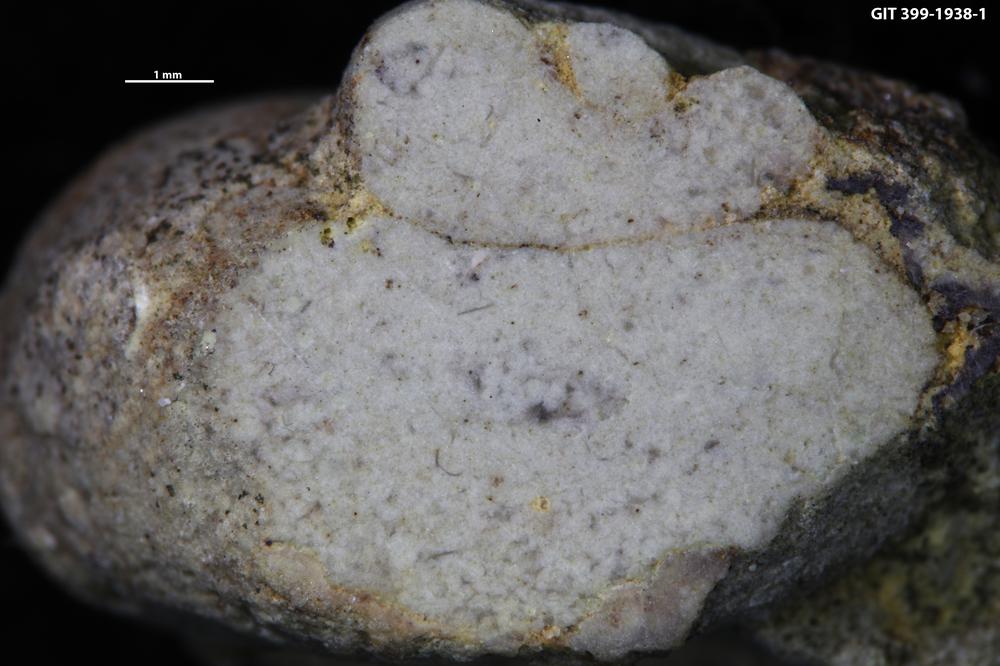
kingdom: Animalia
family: Coprulidae
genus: Coprulus
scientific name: Coprulus
